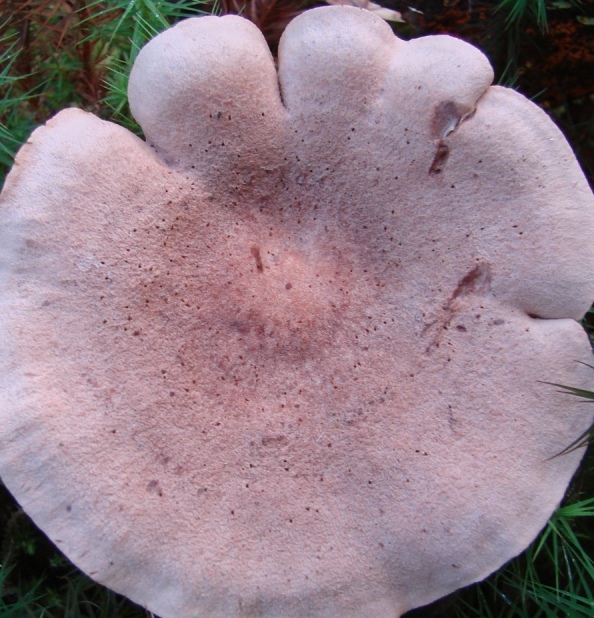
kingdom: Fungi
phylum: Basidiomycota
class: Agaricomycetes
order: Russulales
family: Russulaceae
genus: Lactarius
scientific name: Lactarius helvus
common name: mose-mælkehat
